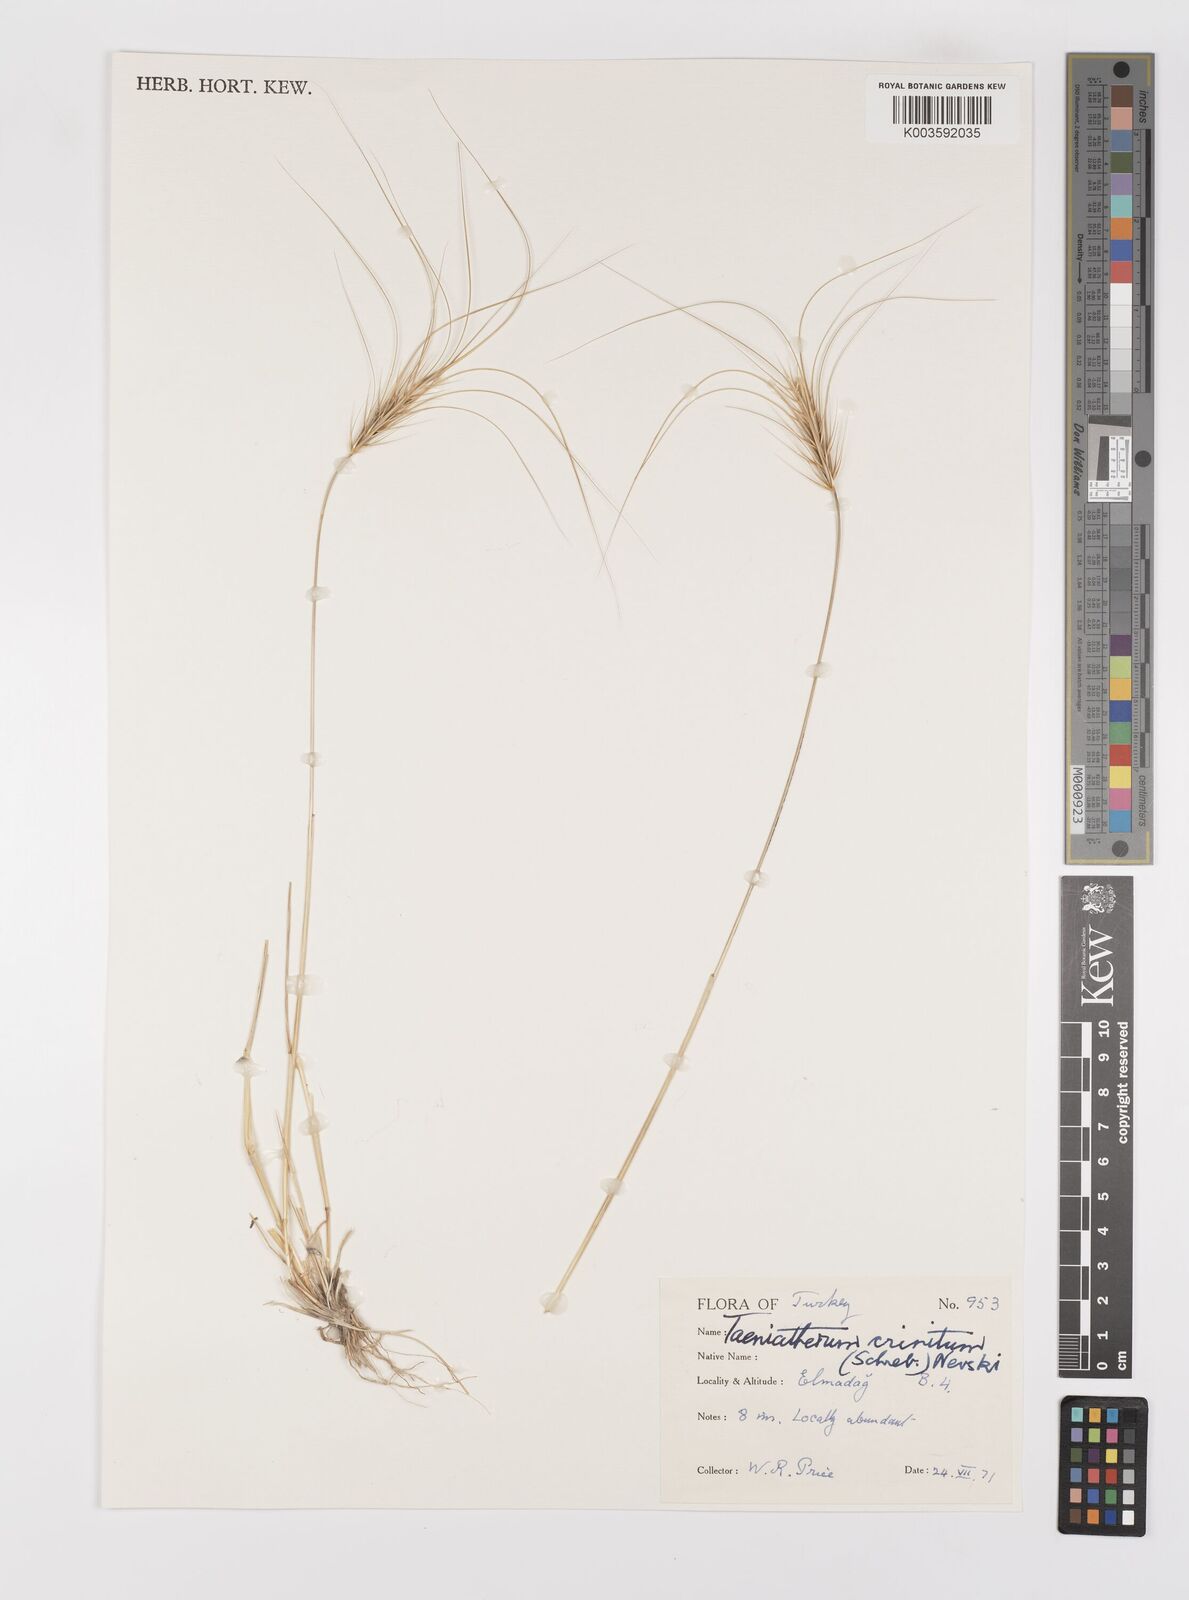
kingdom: Plantae
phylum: Tracheophyta
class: Liliopsida
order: Poales
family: Poaceae
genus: Taeniatherum
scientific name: Taeniatherum caput-medusae
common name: Medusahead
